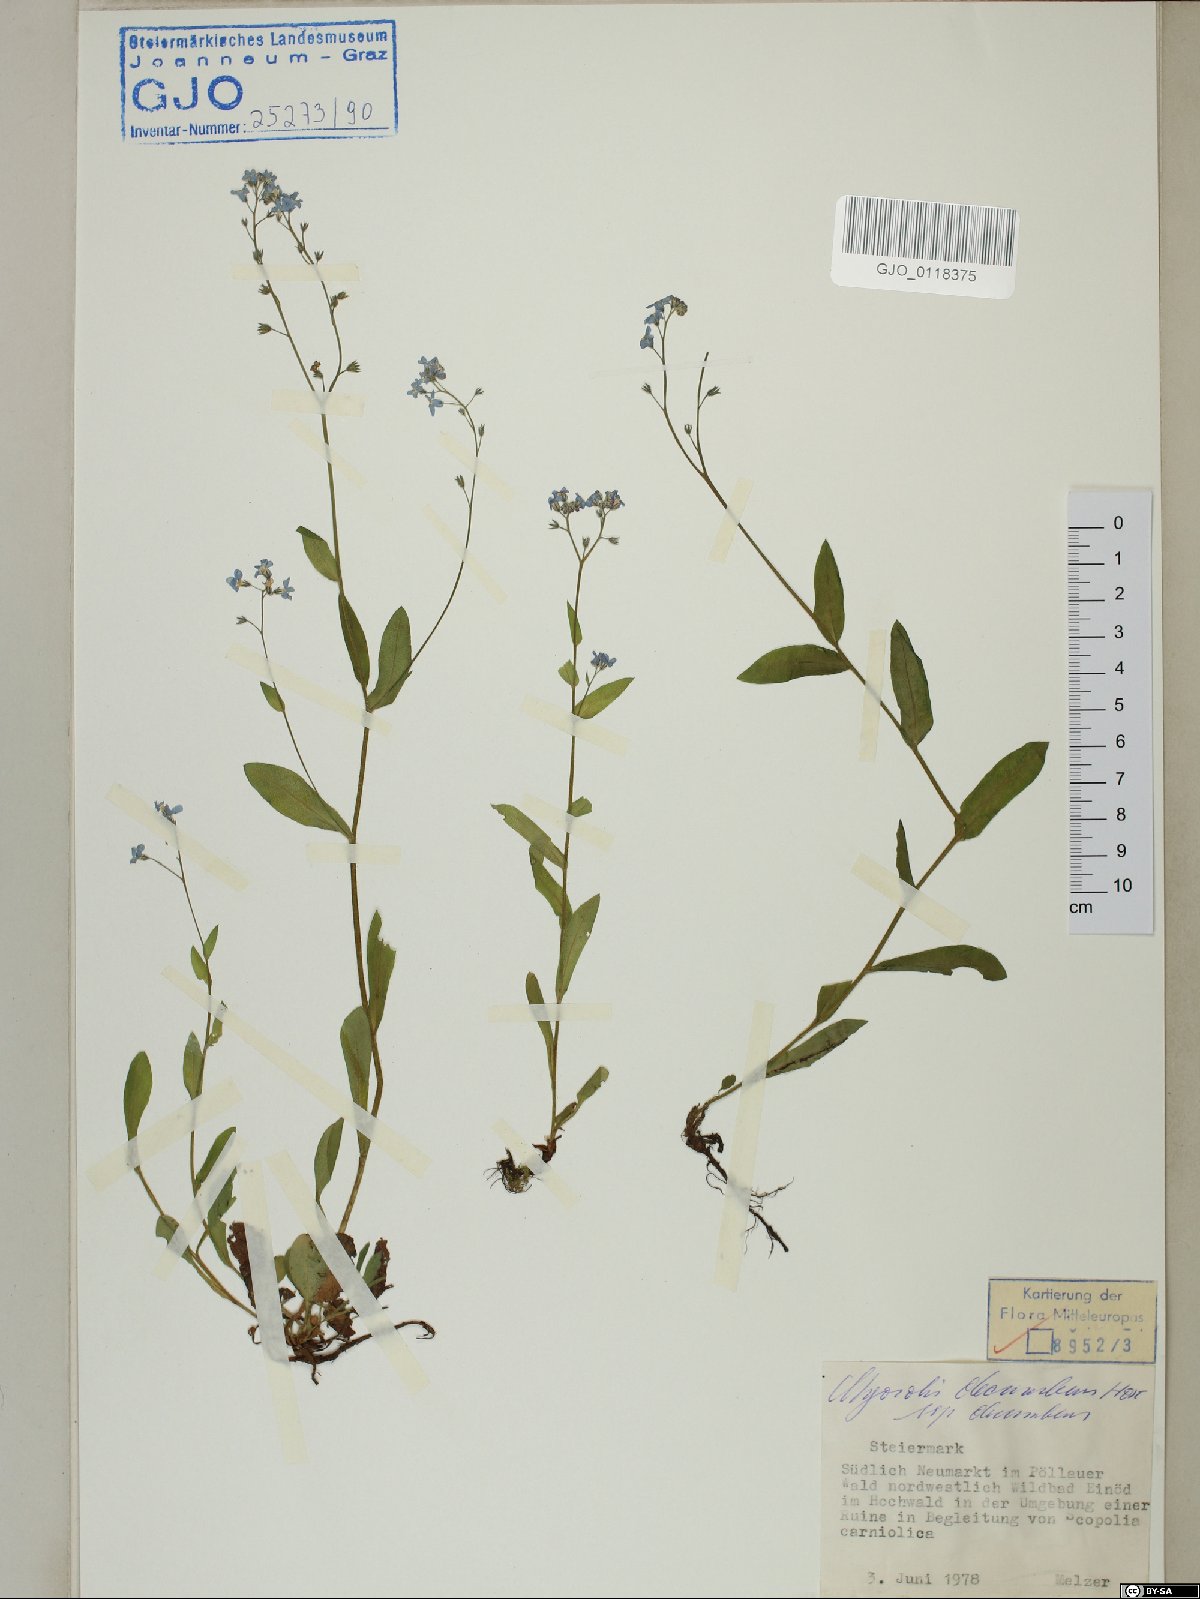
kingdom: Plantae
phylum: Tracheophyta
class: Magnoliopsida
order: Boraginales
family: Boraginaceae
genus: Myosotis
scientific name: Myosotis decumbens
